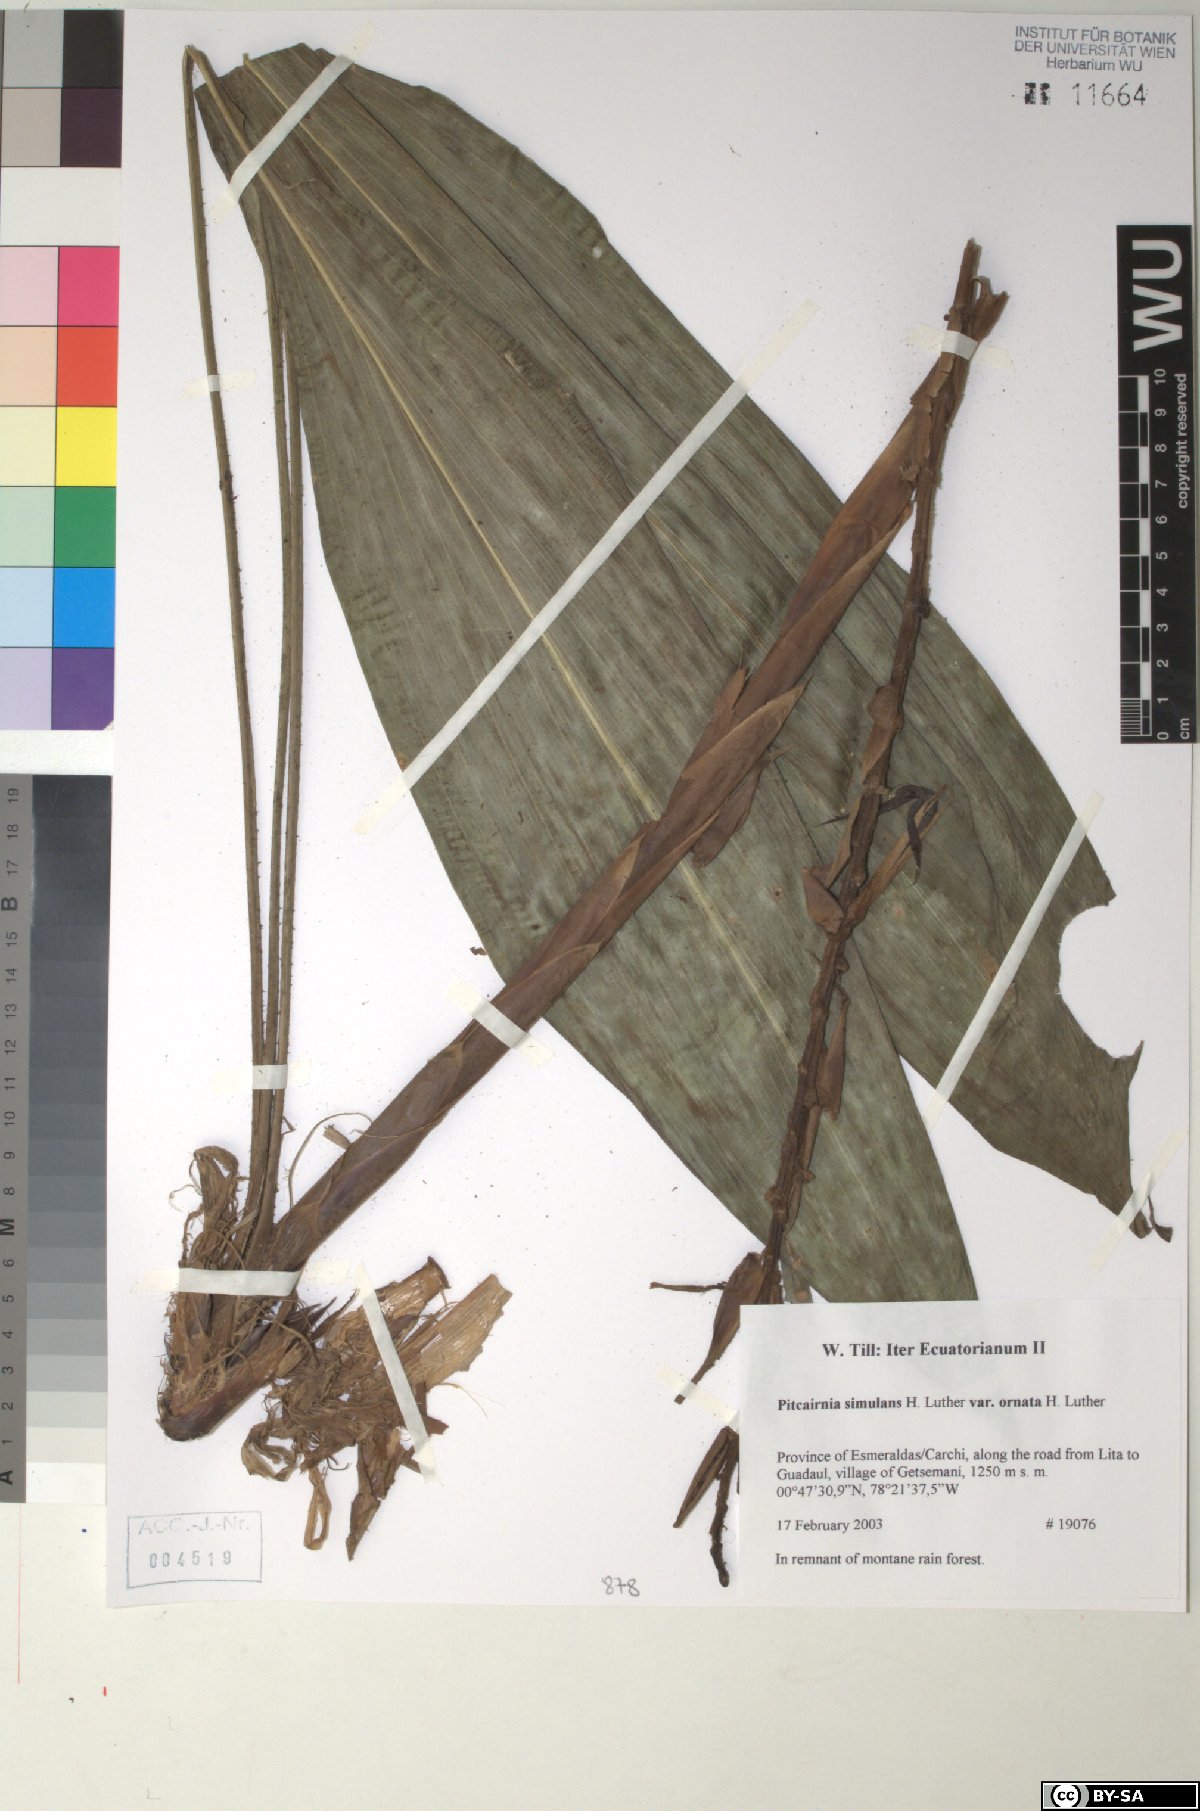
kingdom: Plantae
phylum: Tracheophyta
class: Liliopsida
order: Poales
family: Bromeliaceae
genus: Pitcairnia
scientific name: Pitcairnia simulans
